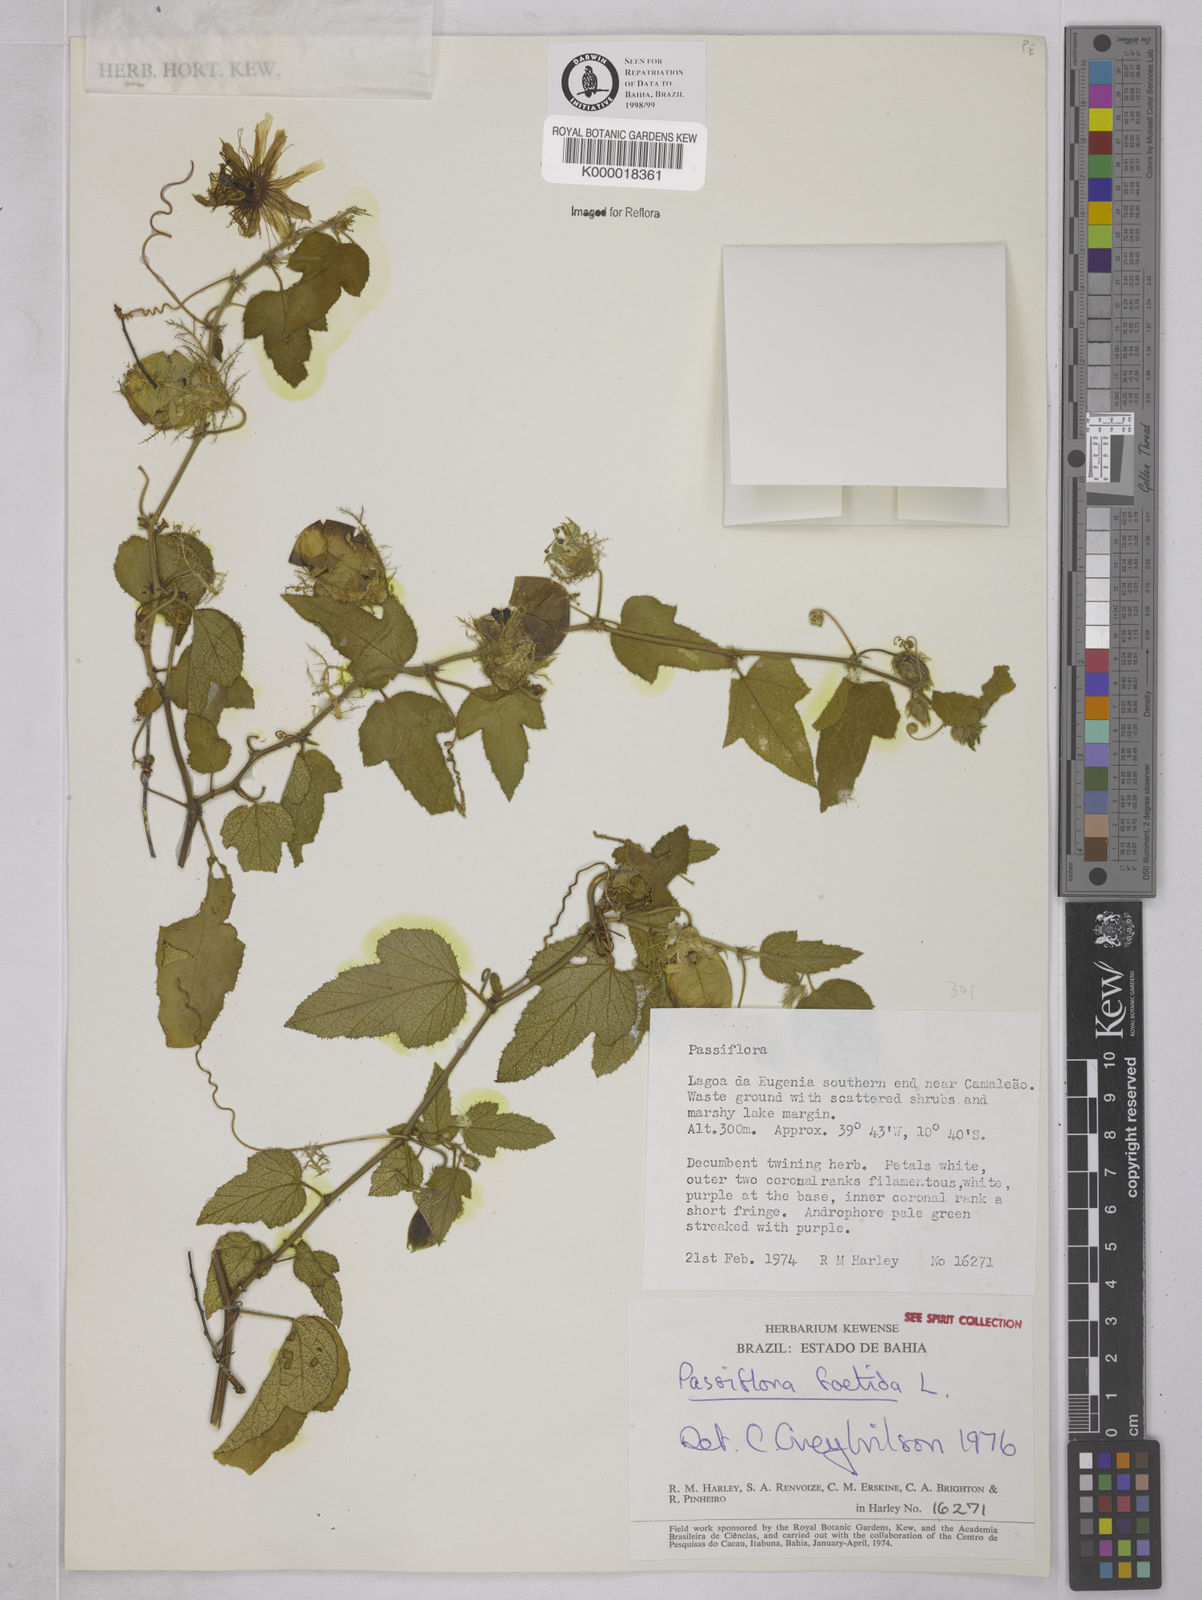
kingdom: Plantae
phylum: Tracheophyta
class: Magnoliopsida
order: Malpighiales
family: Passifloraceae
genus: Passiflora
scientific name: Passiflora foetida
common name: Fetid passionflower
